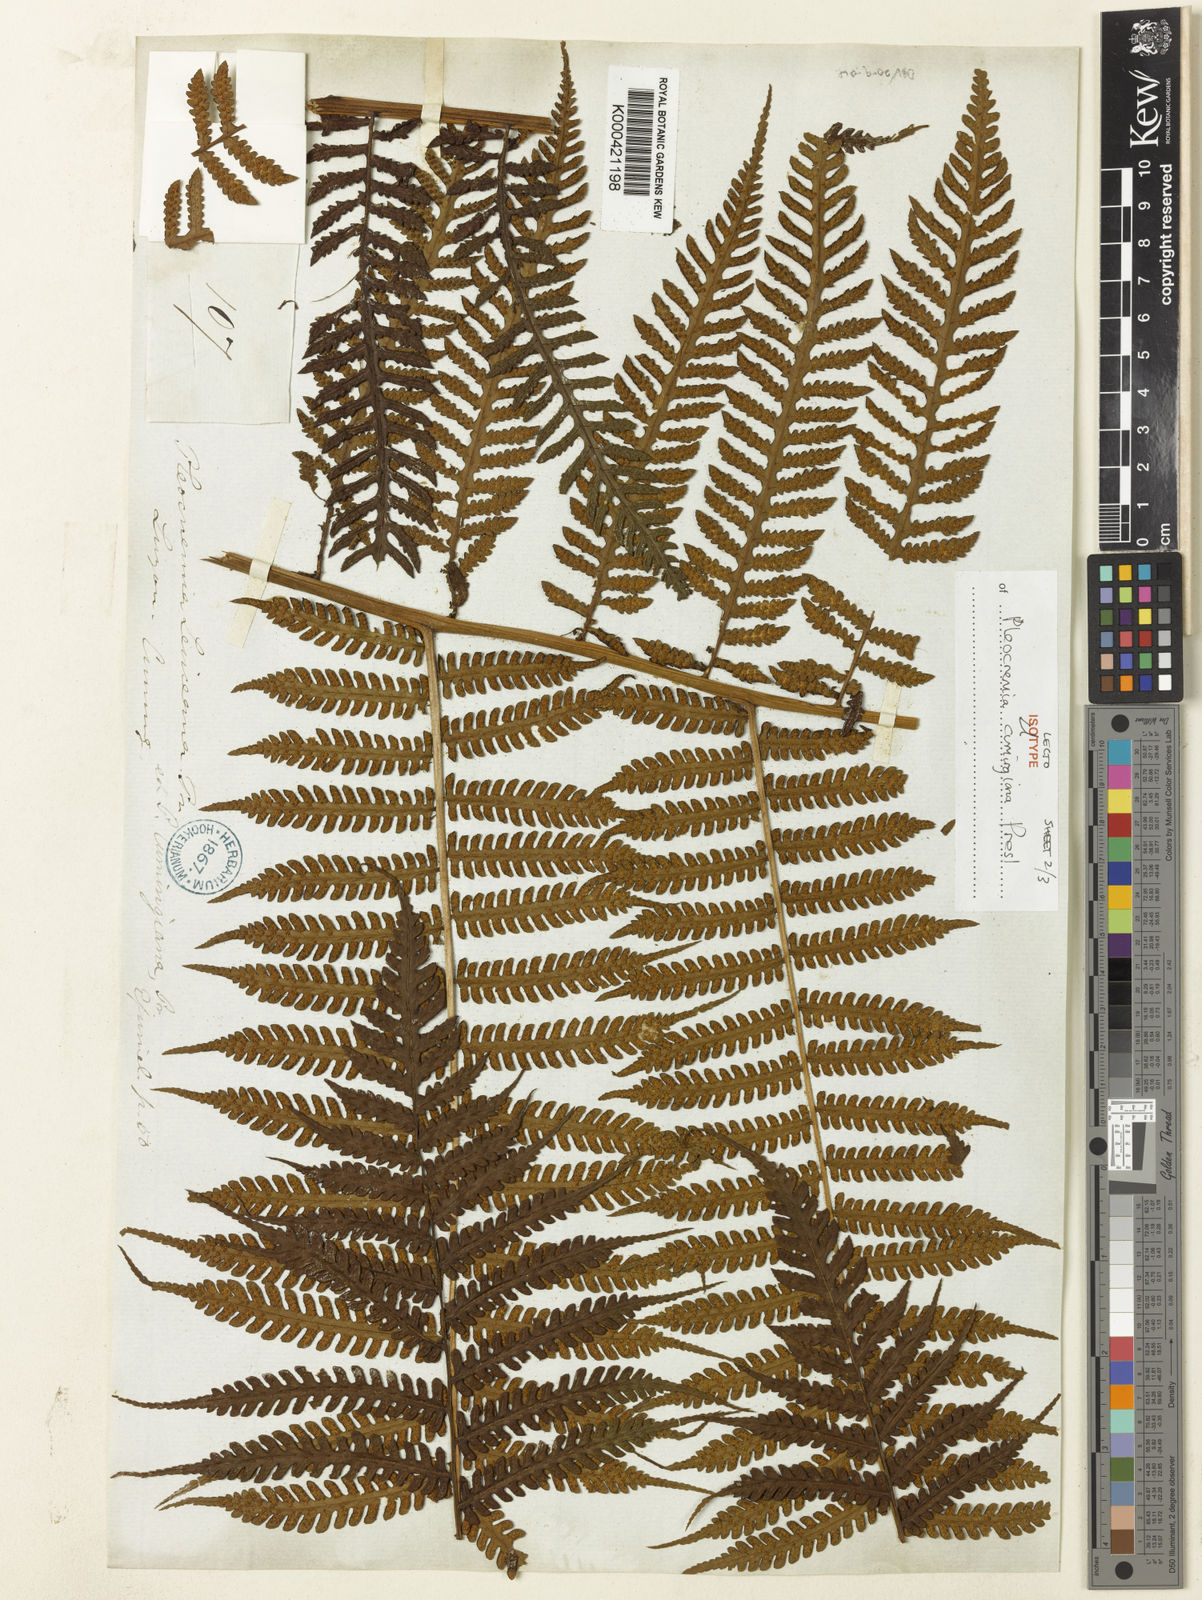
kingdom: Plantae
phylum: Tracheophyta
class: Polypodiopsida
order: Polypodiales
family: Dryopteridaceae
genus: Pleocnemia
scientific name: Pleocnemia cumingiana
